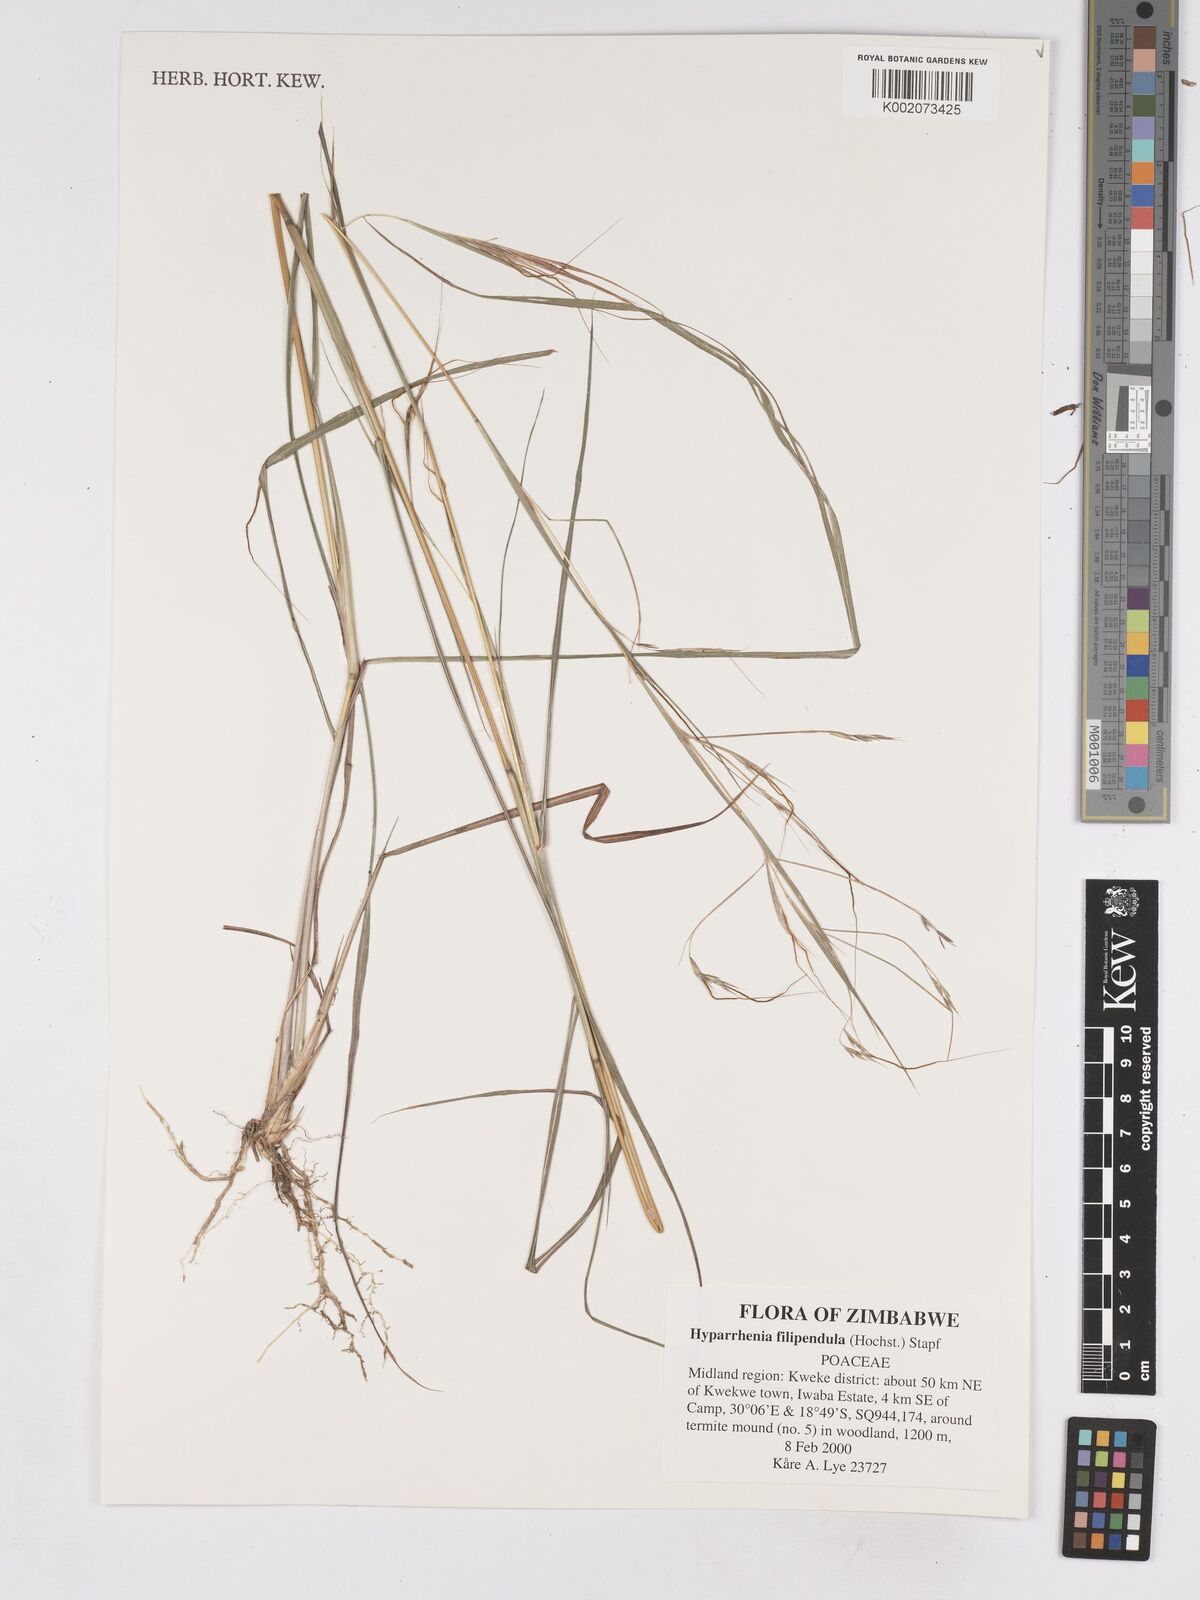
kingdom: Plantae
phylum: Tracheophyta
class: Liliopsida
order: Poales
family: Poaceae
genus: Hyparrhenia
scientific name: Hyparrhenia filipendula
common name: Tambookie grass
